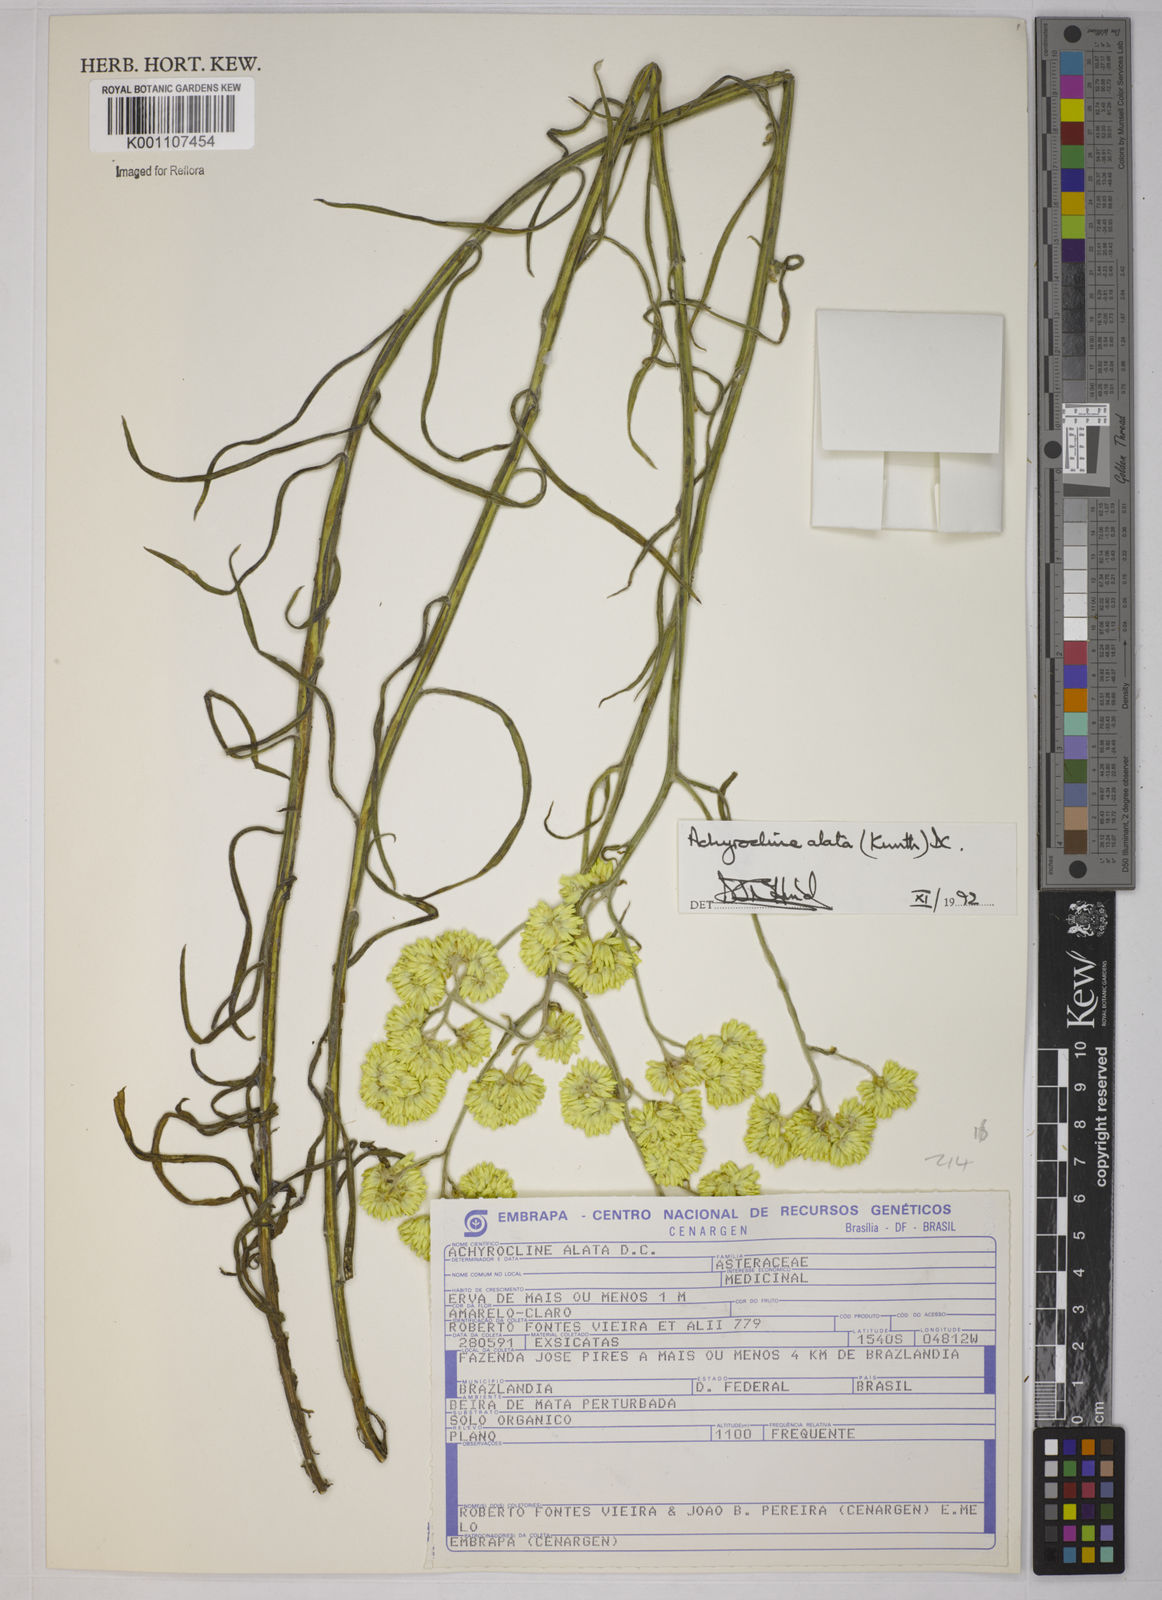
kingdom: Plantae
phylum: Tracheophyta
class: Magnoliopsida
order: Asterales
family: Asteraceae
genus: Achyrocline
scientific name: Achyrocline alata
